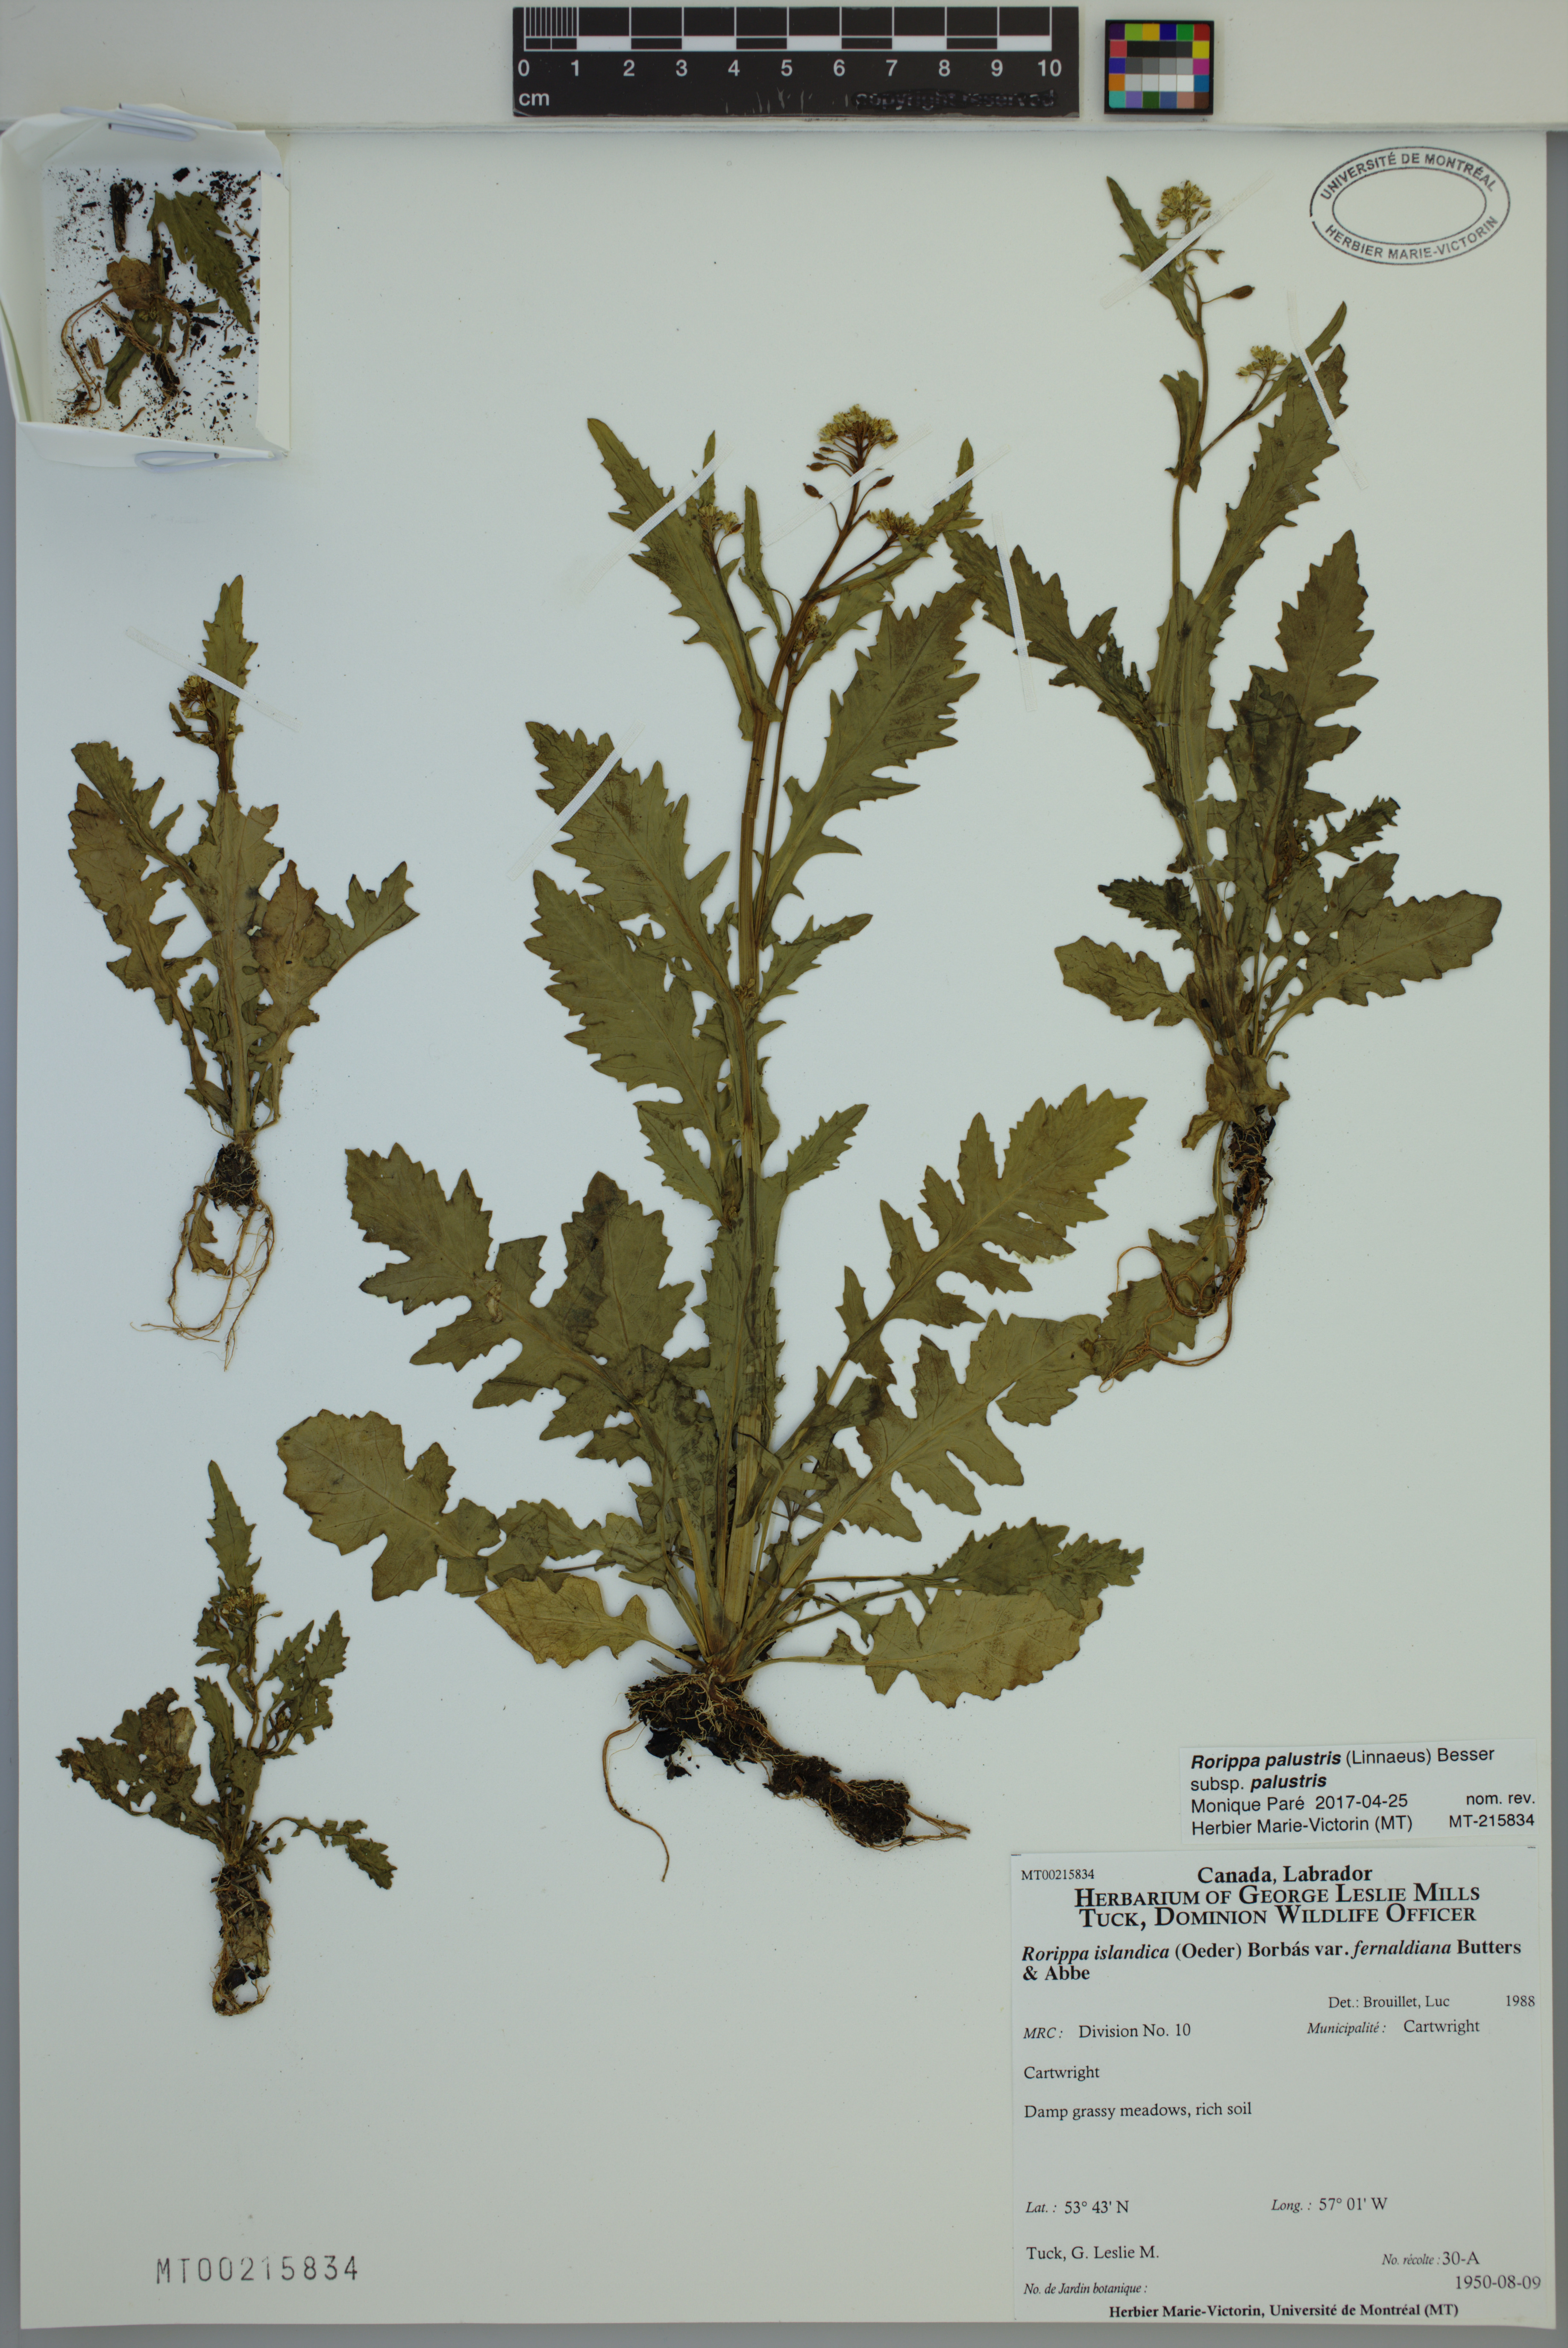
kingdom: Plantae
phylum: Tracheophyta
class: Magnoliopsida
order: Brassicales
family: Brassicaceae
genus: Rorippa
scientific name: Rorippa palustris
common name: Marsh yellow-cress
